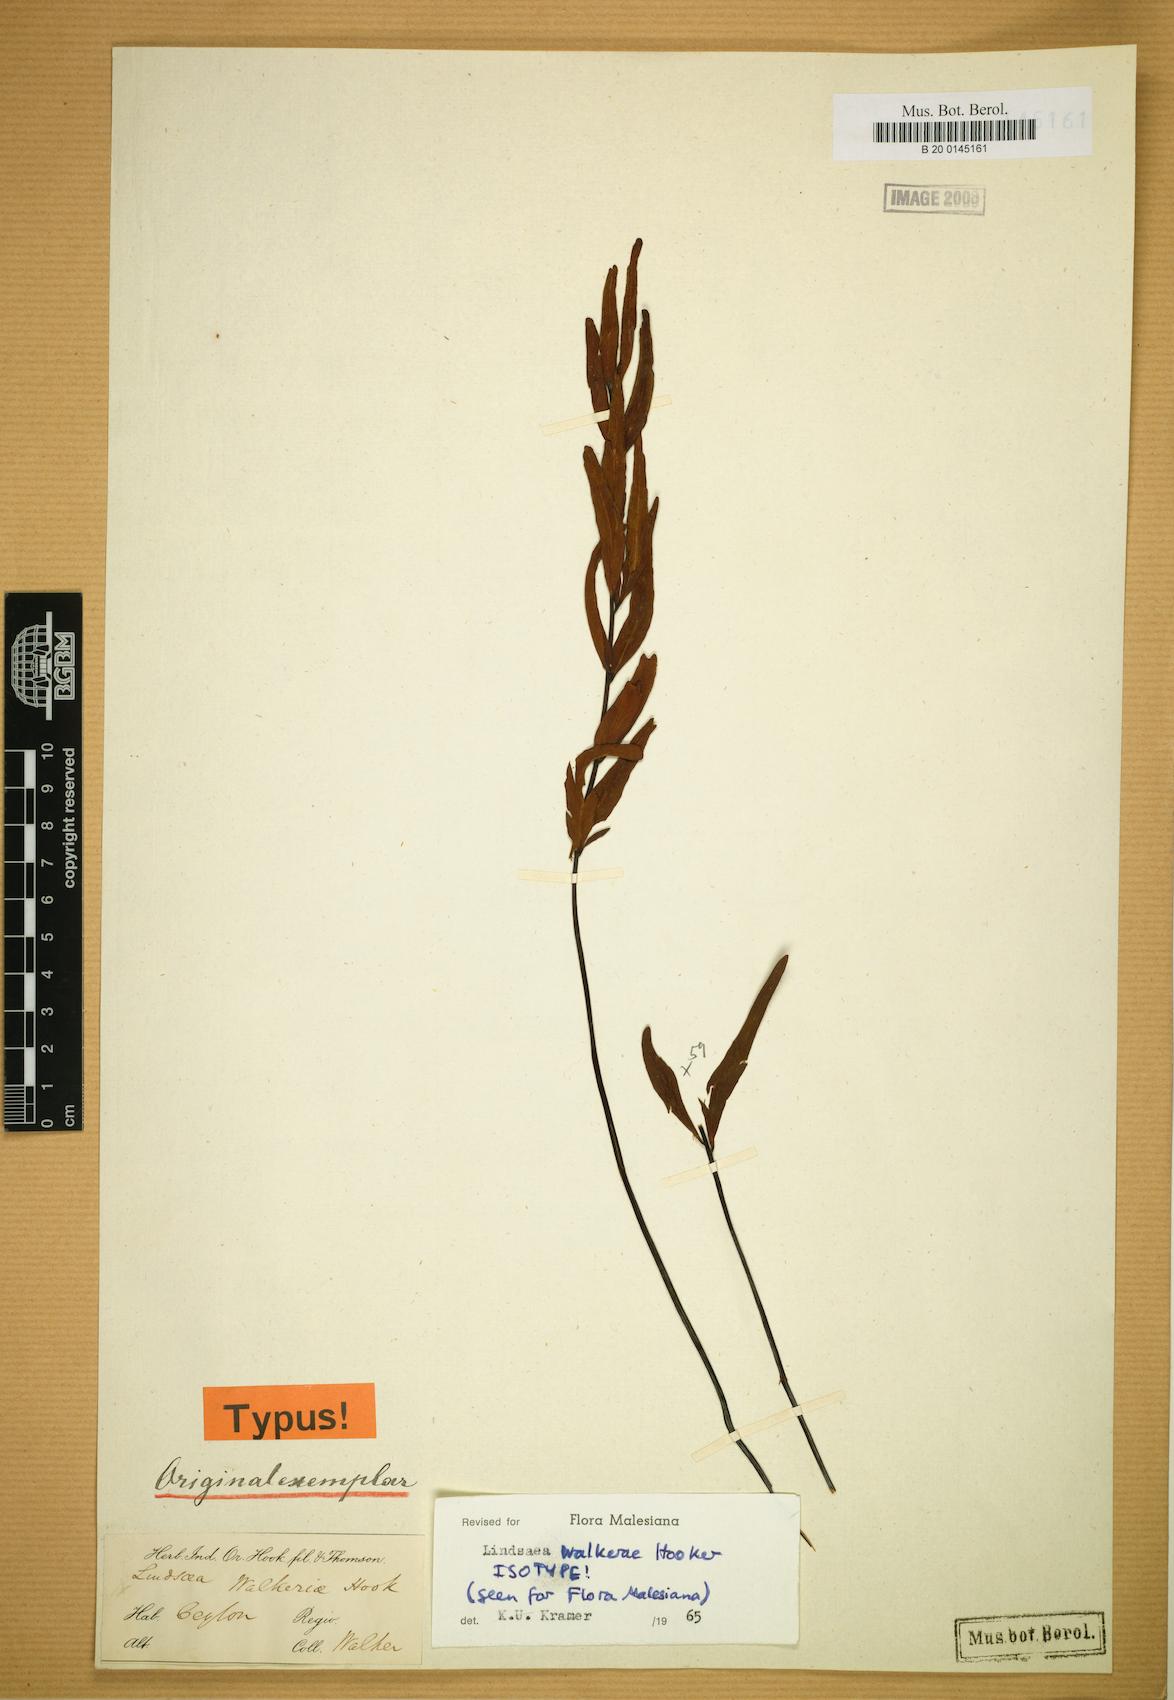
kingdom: Plantae
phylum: Tracheophyta
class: Polypodiopsida
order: Polypodiales
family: Lindsaeaceae
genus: Lindsaea
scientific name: Lindsaea walkerae
